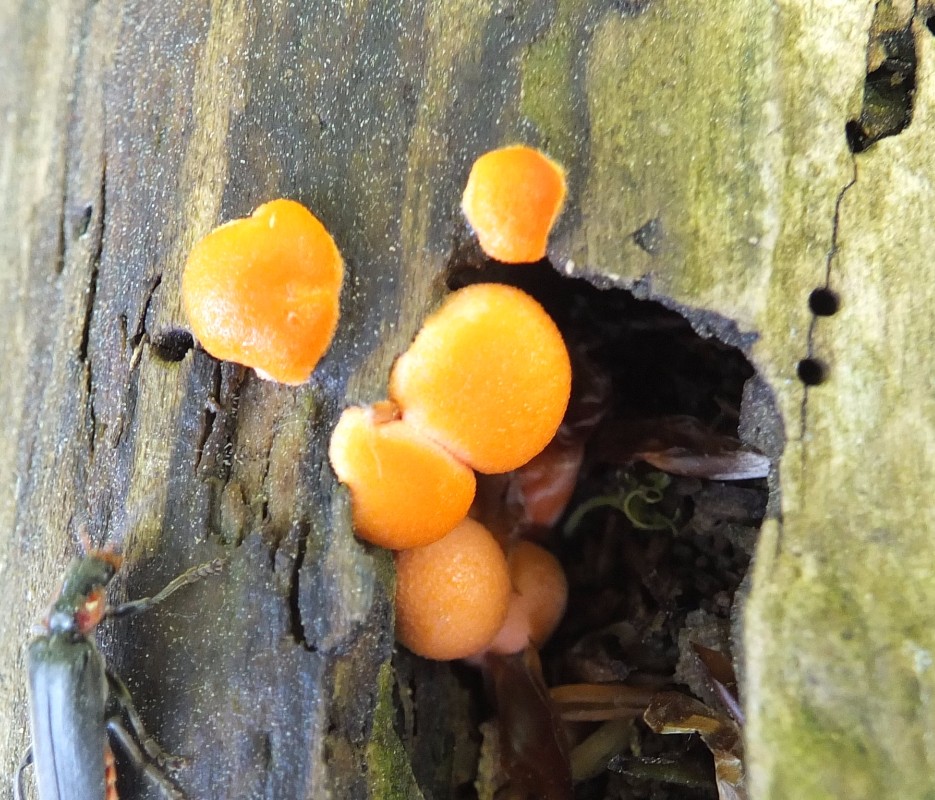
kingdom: Protozoa
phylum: Mycetozoa
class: Myxomycetes
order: Cribrariales
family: Tubiferaceae
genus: Lycogala
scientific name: Lycogala epidendrum
